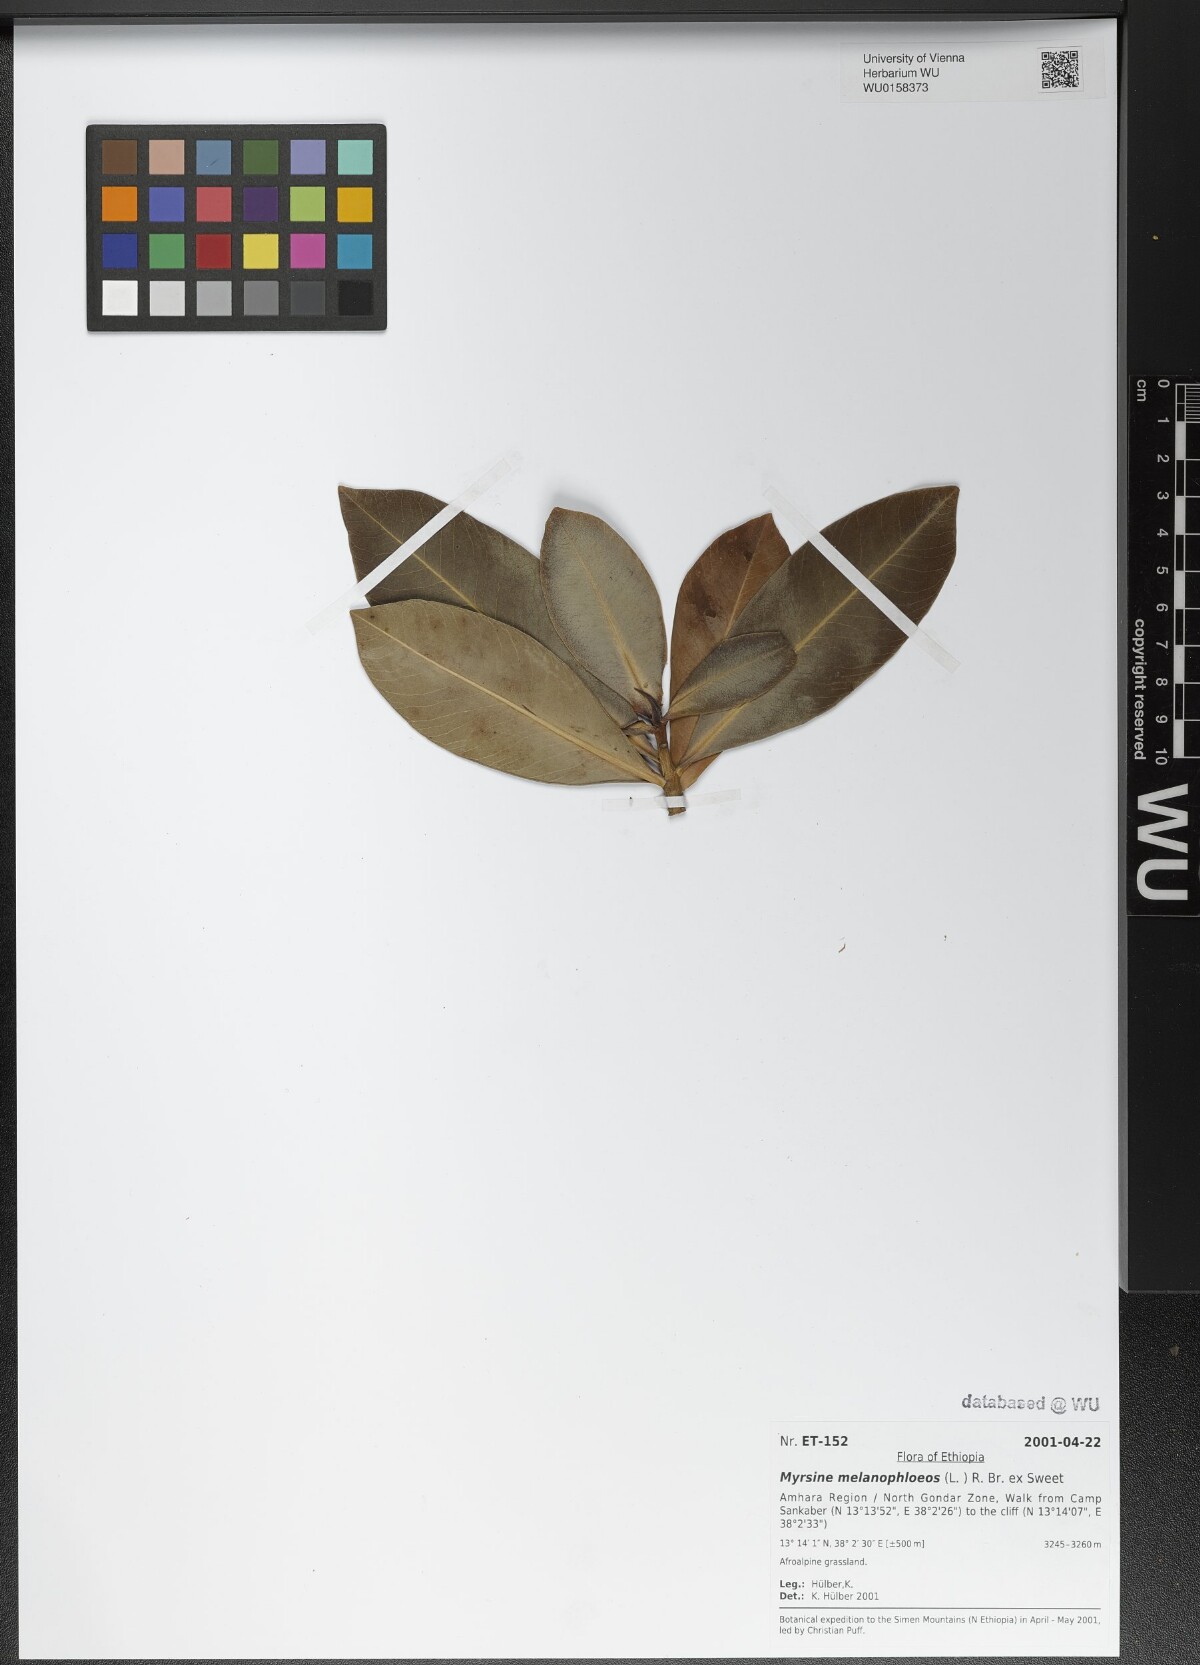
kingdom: Plantae
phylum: Tracheophyta
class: Magnoliopsida
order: Ericales
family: Primulaceae
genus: Myrsine
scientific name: Myrsine melanophloeos
